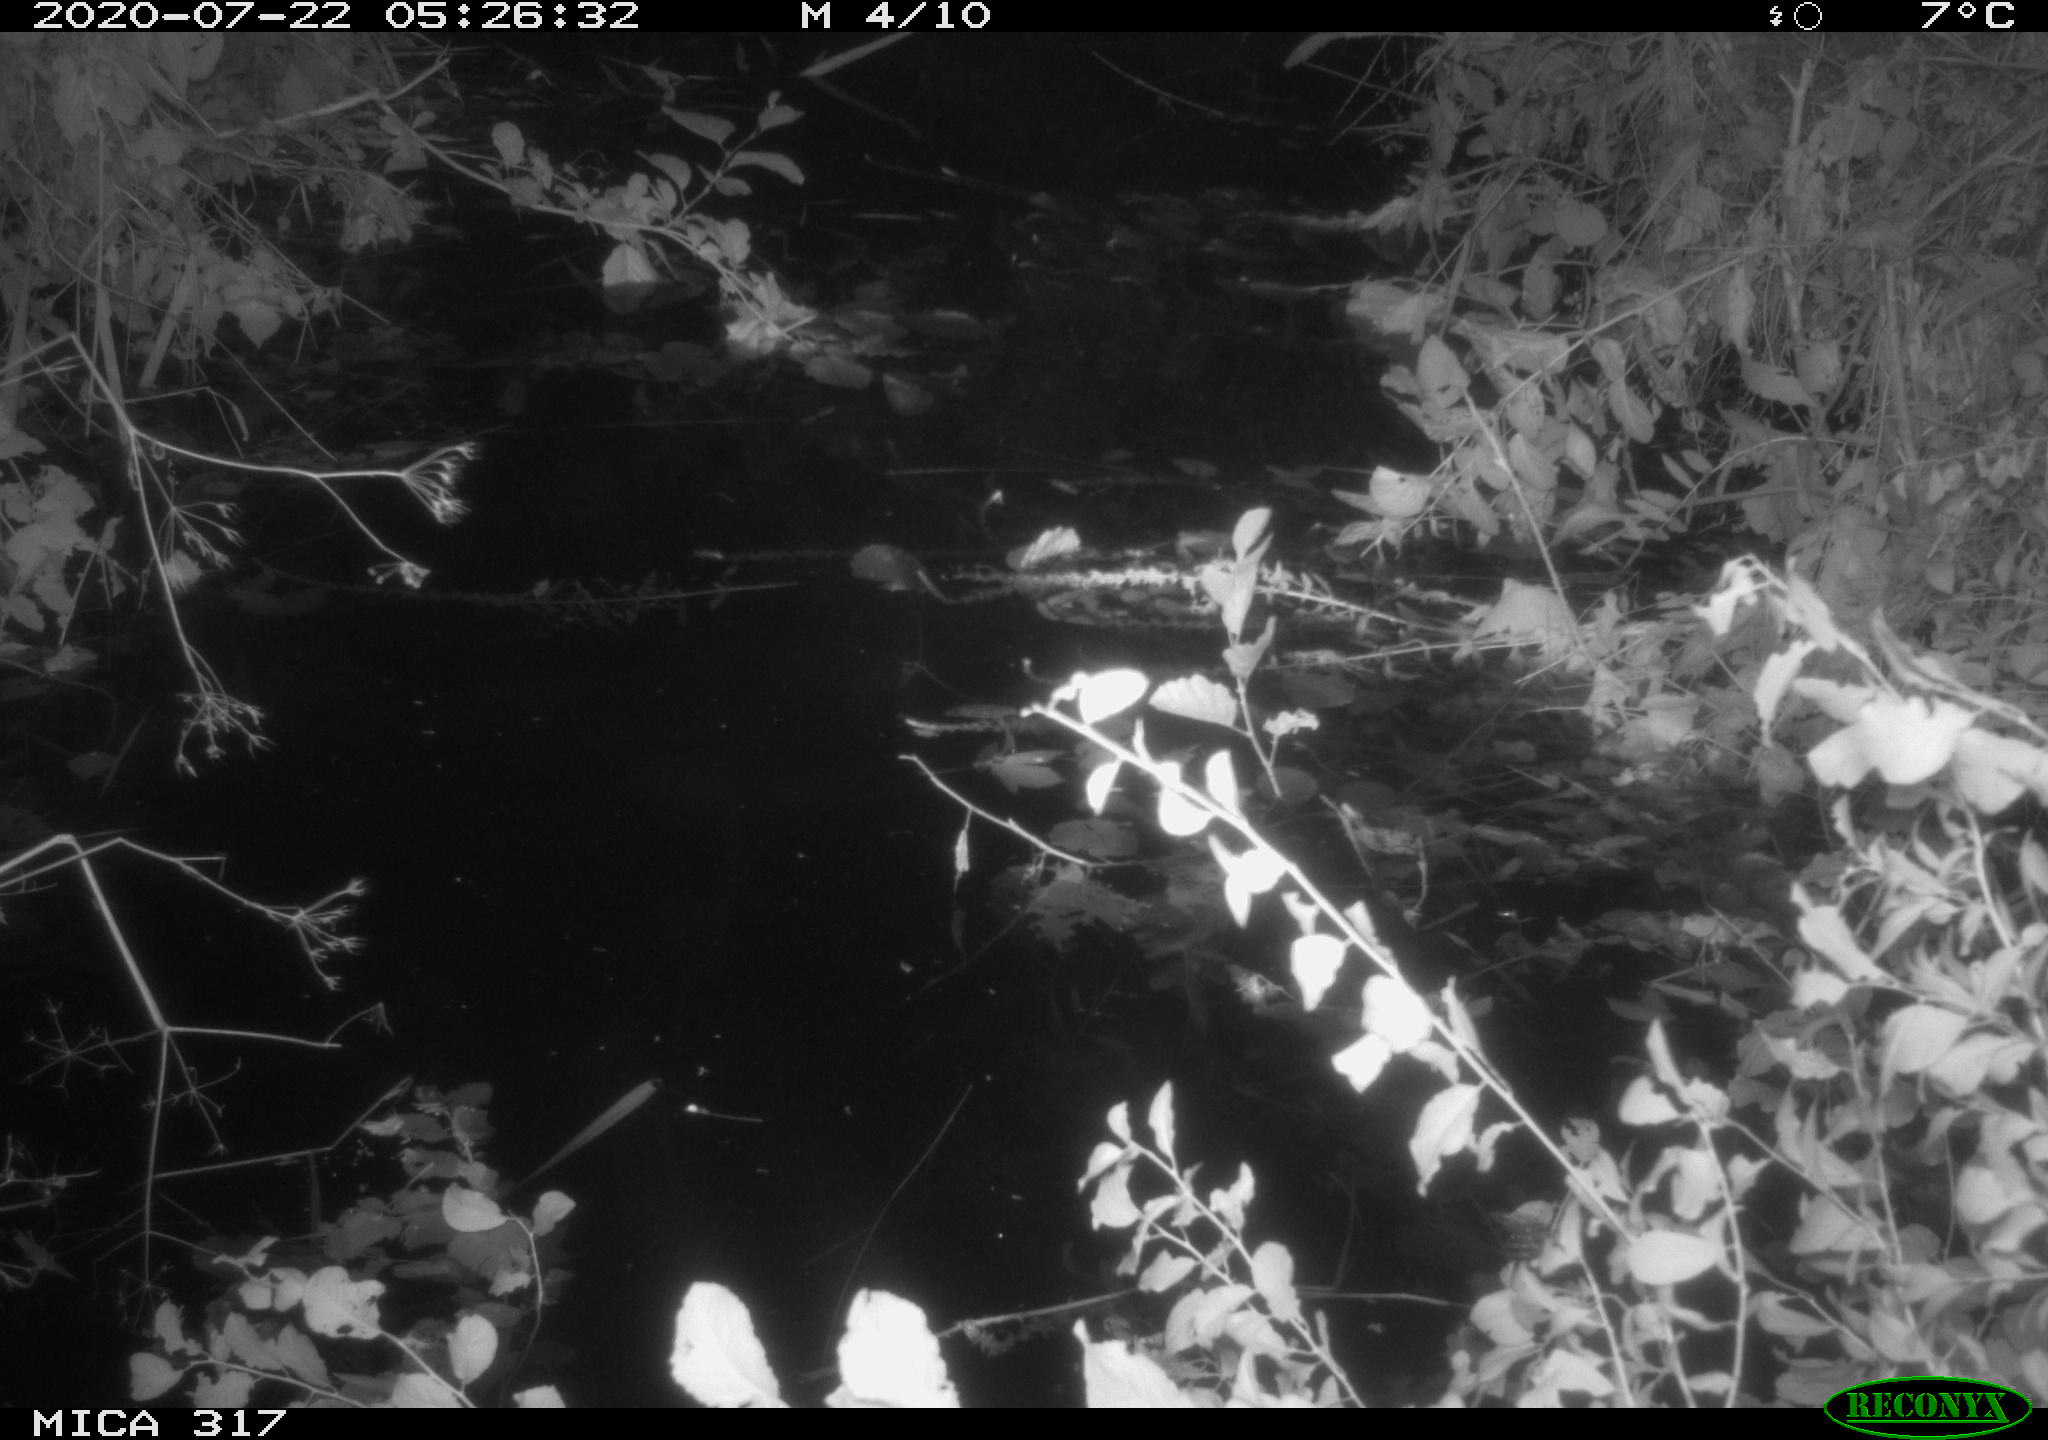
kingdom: Animalia
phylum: Chordata
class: Aves
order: Anseriformes
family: Anatidae
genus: Anas
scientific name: Anas platyrhynchos
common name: Mallard
